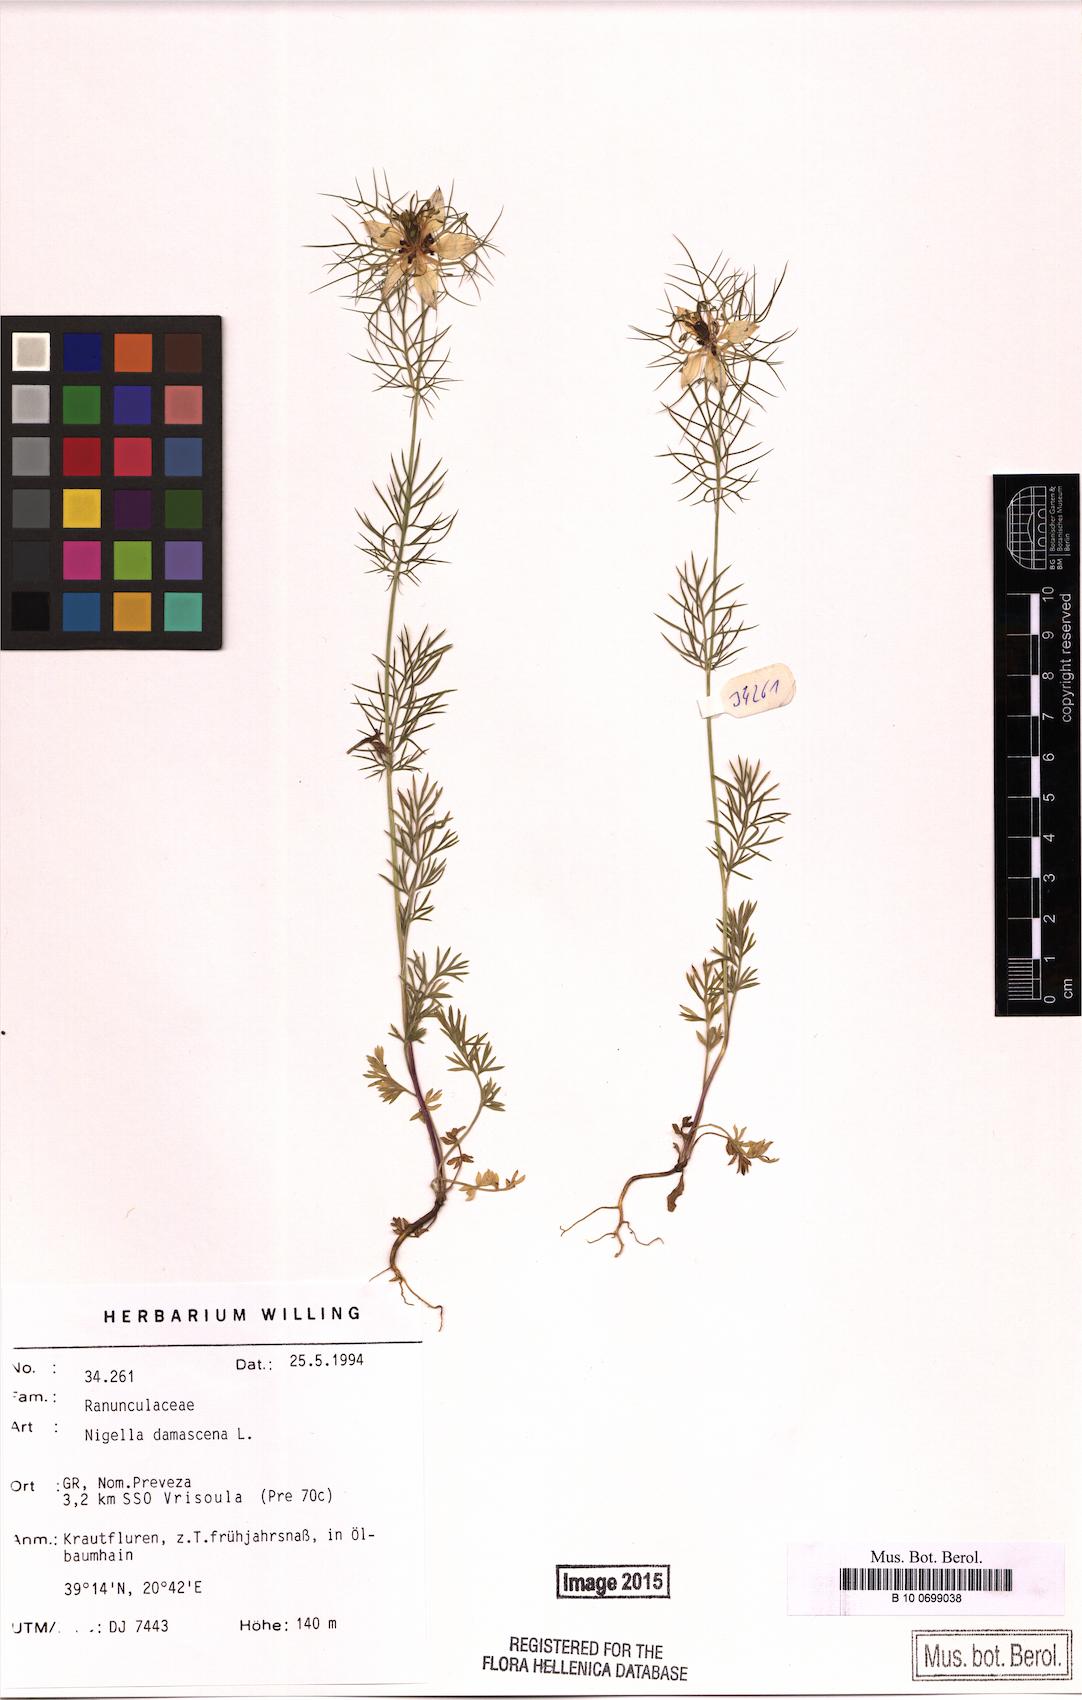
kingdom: Plantae
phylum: Tracheophyta
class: Magnoliopsida
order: Ranunculales
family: Ranunculaceae
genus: Nigella
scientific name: Nigella damascena
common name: Love-in-a-mist
